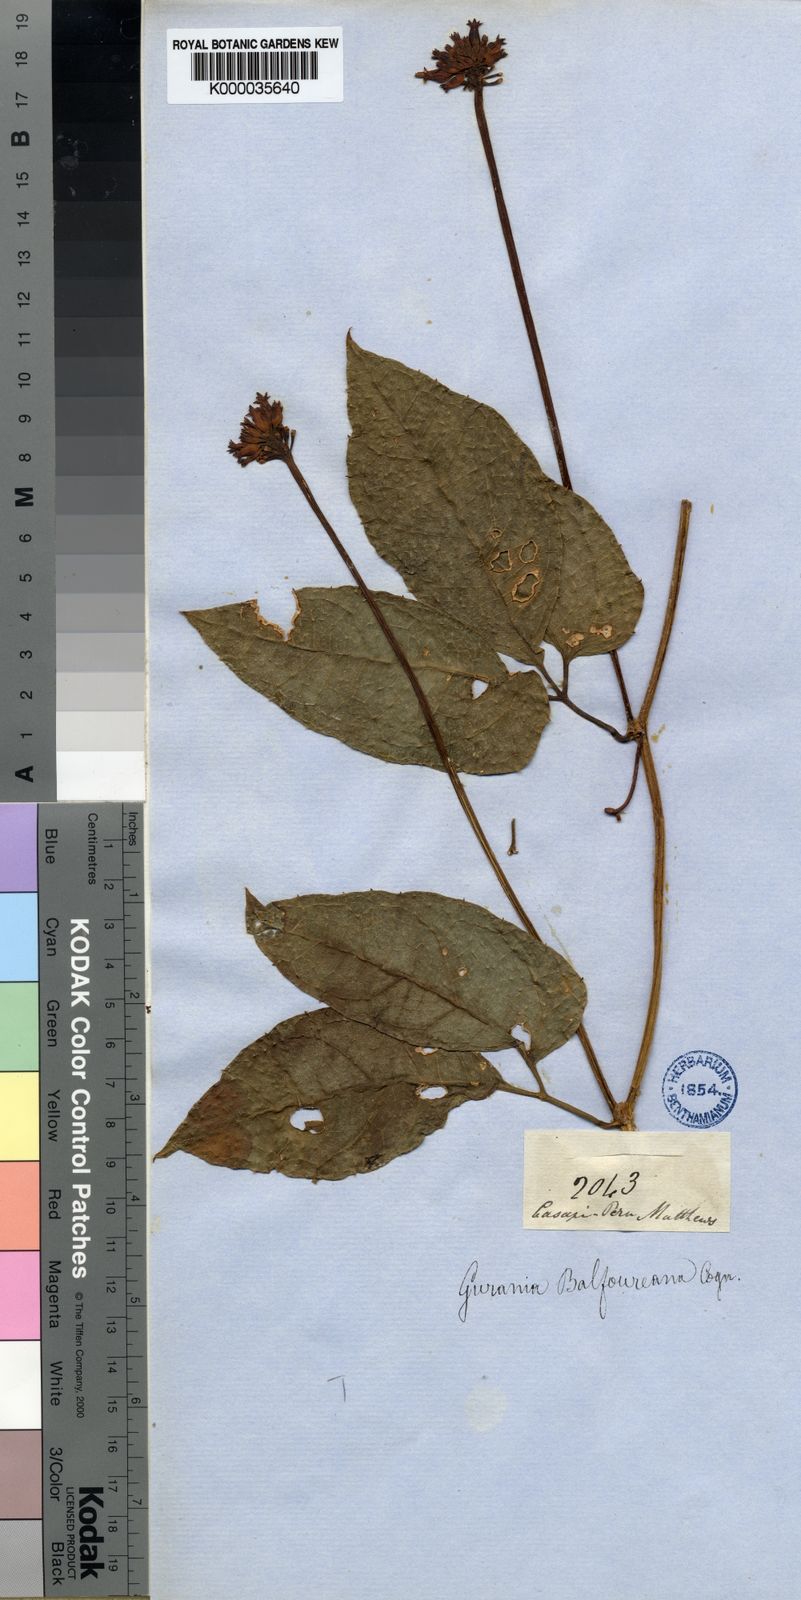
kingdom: Plantae
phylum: Tracheophyta
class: Magnoliopsida
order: Cucurbitales
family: Cucurbitaceae
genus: Gurania
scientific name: Gurania bignoniacea
